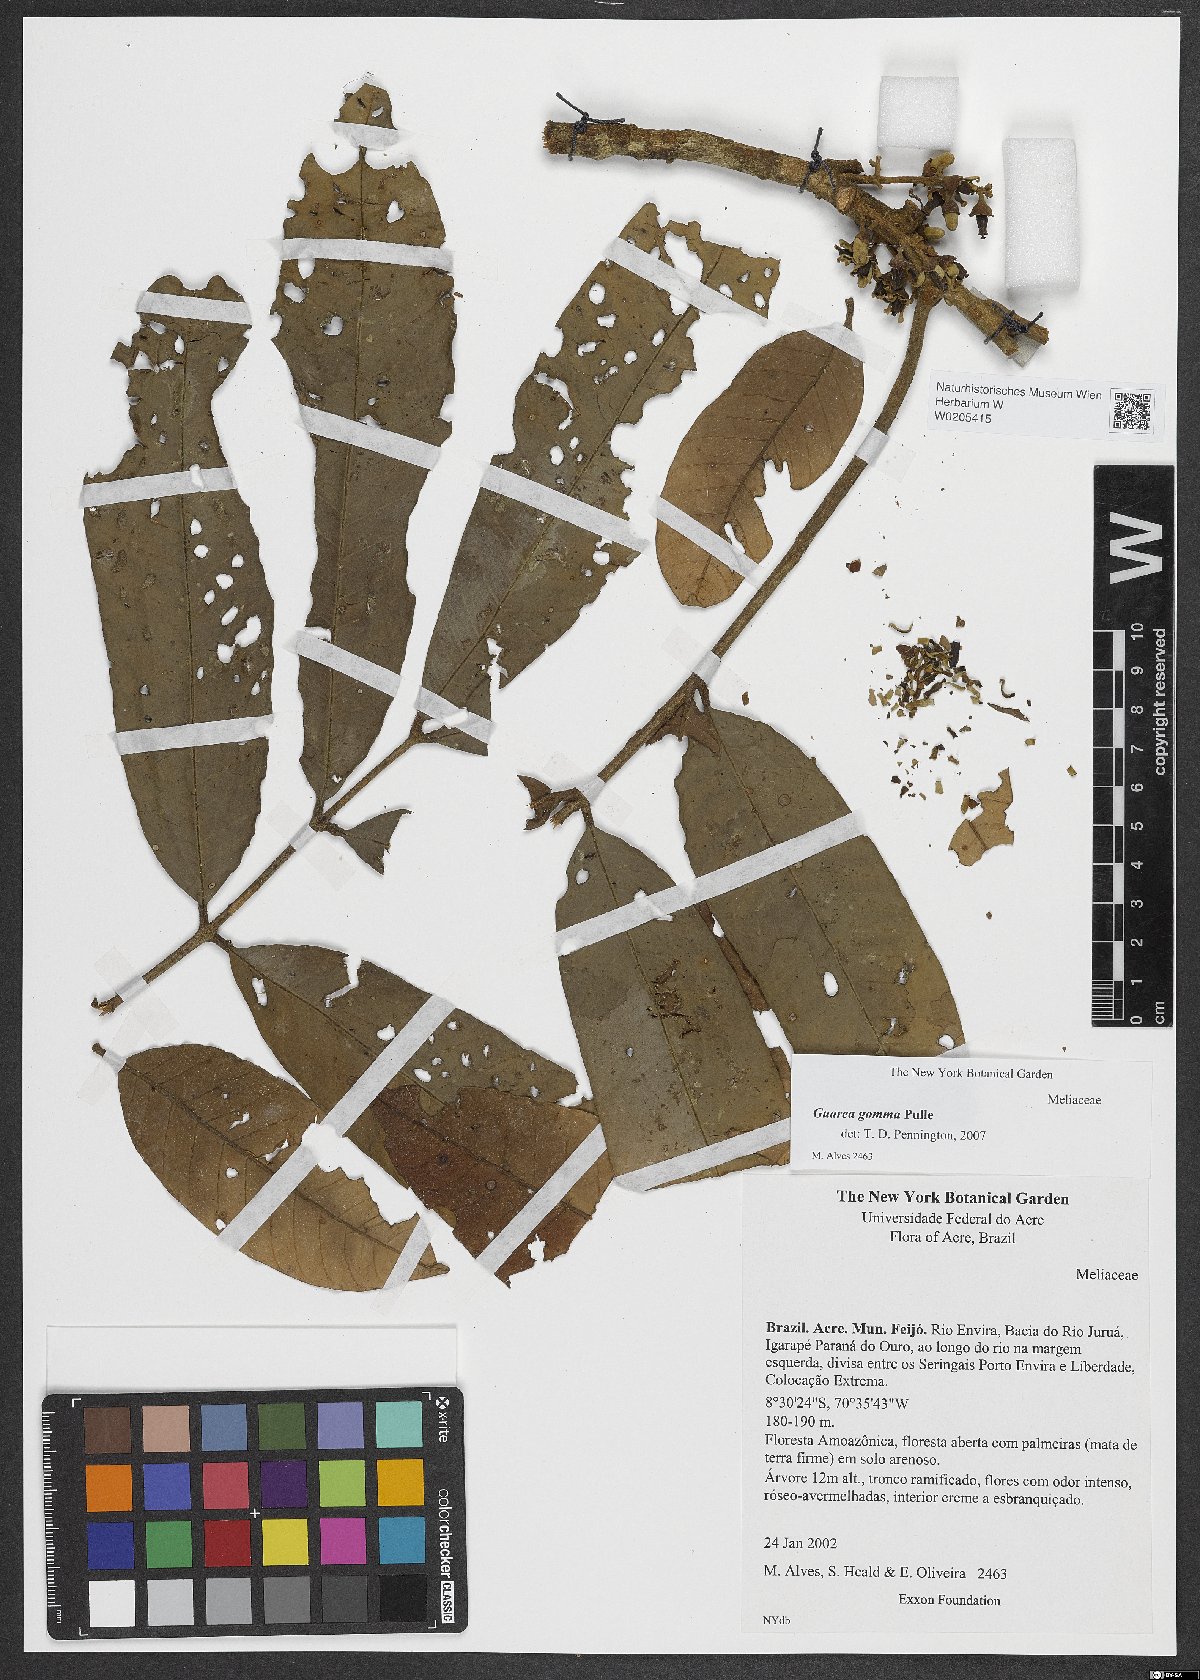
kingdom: Plantae
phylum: Tracheophyta
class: Magnoliopsida
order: Sapindales
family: Meliaceae
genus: Guarea
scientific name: Guarea gomma
